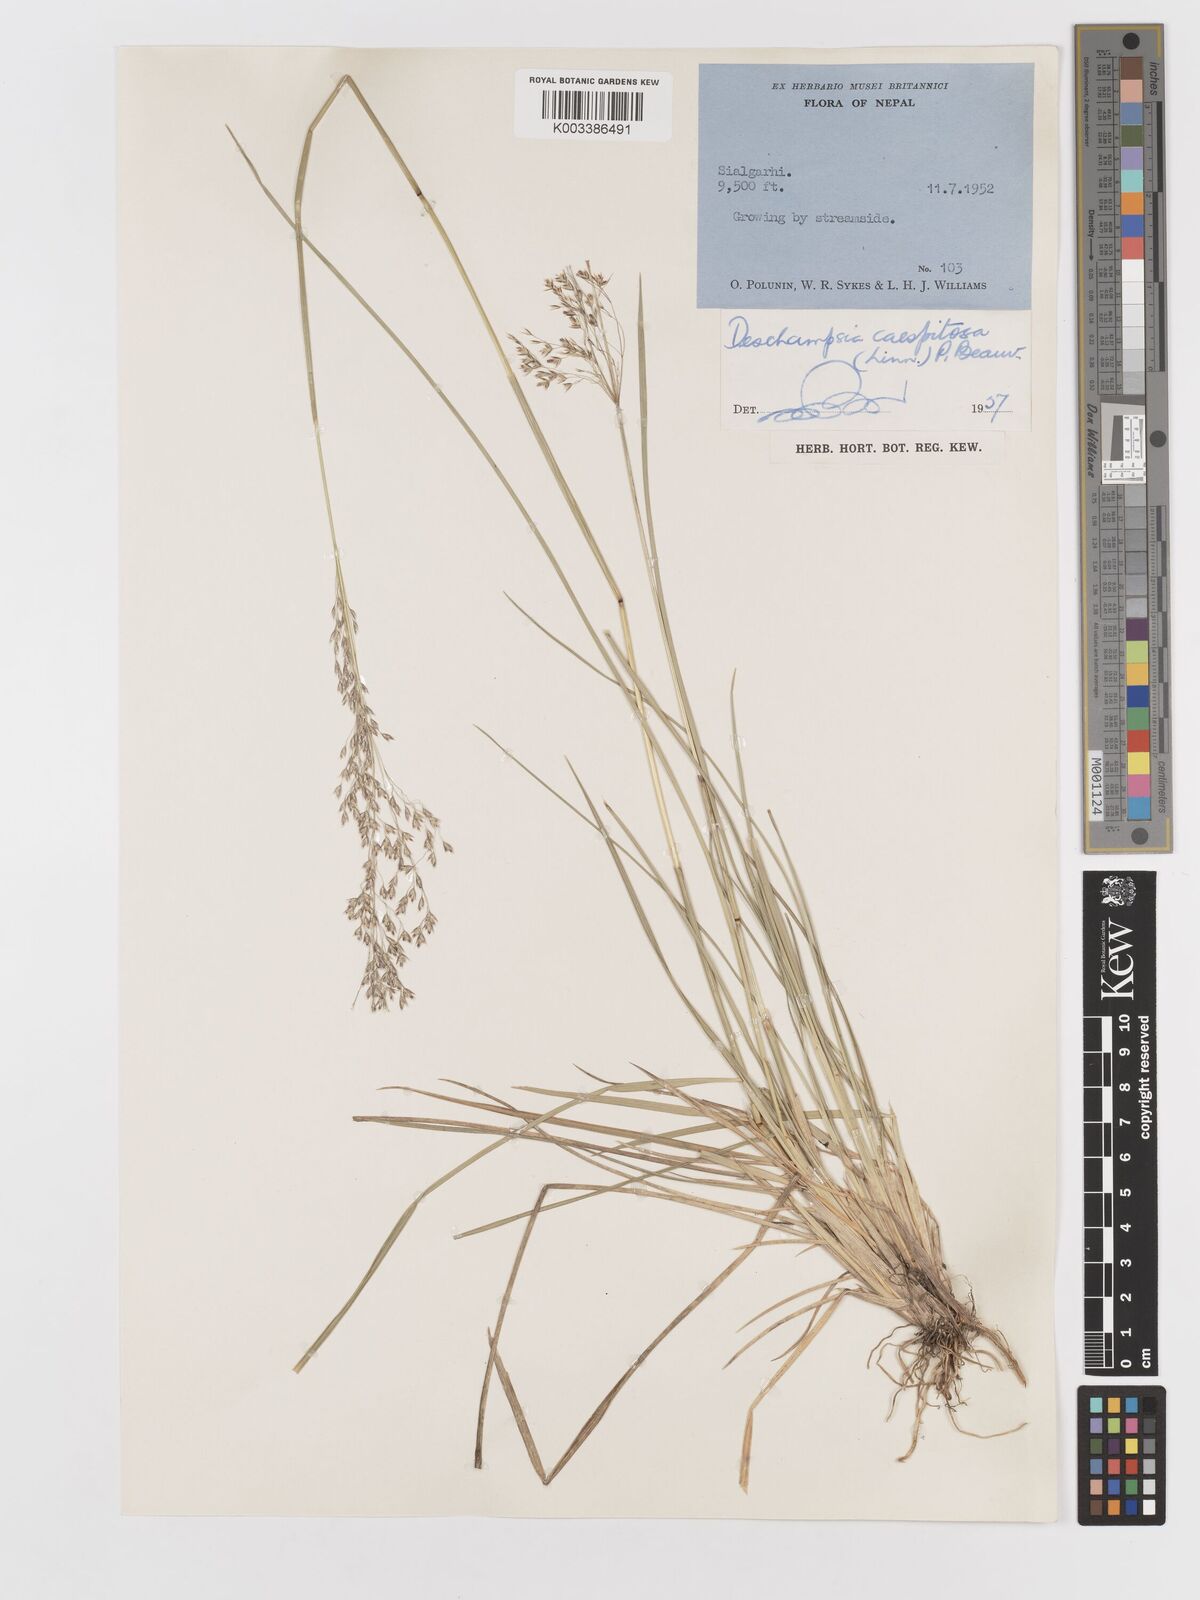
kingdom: Plantae
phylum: Tracheophyta
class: Liliopsida
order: Poales
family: Poaceae
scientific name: Poaceae
